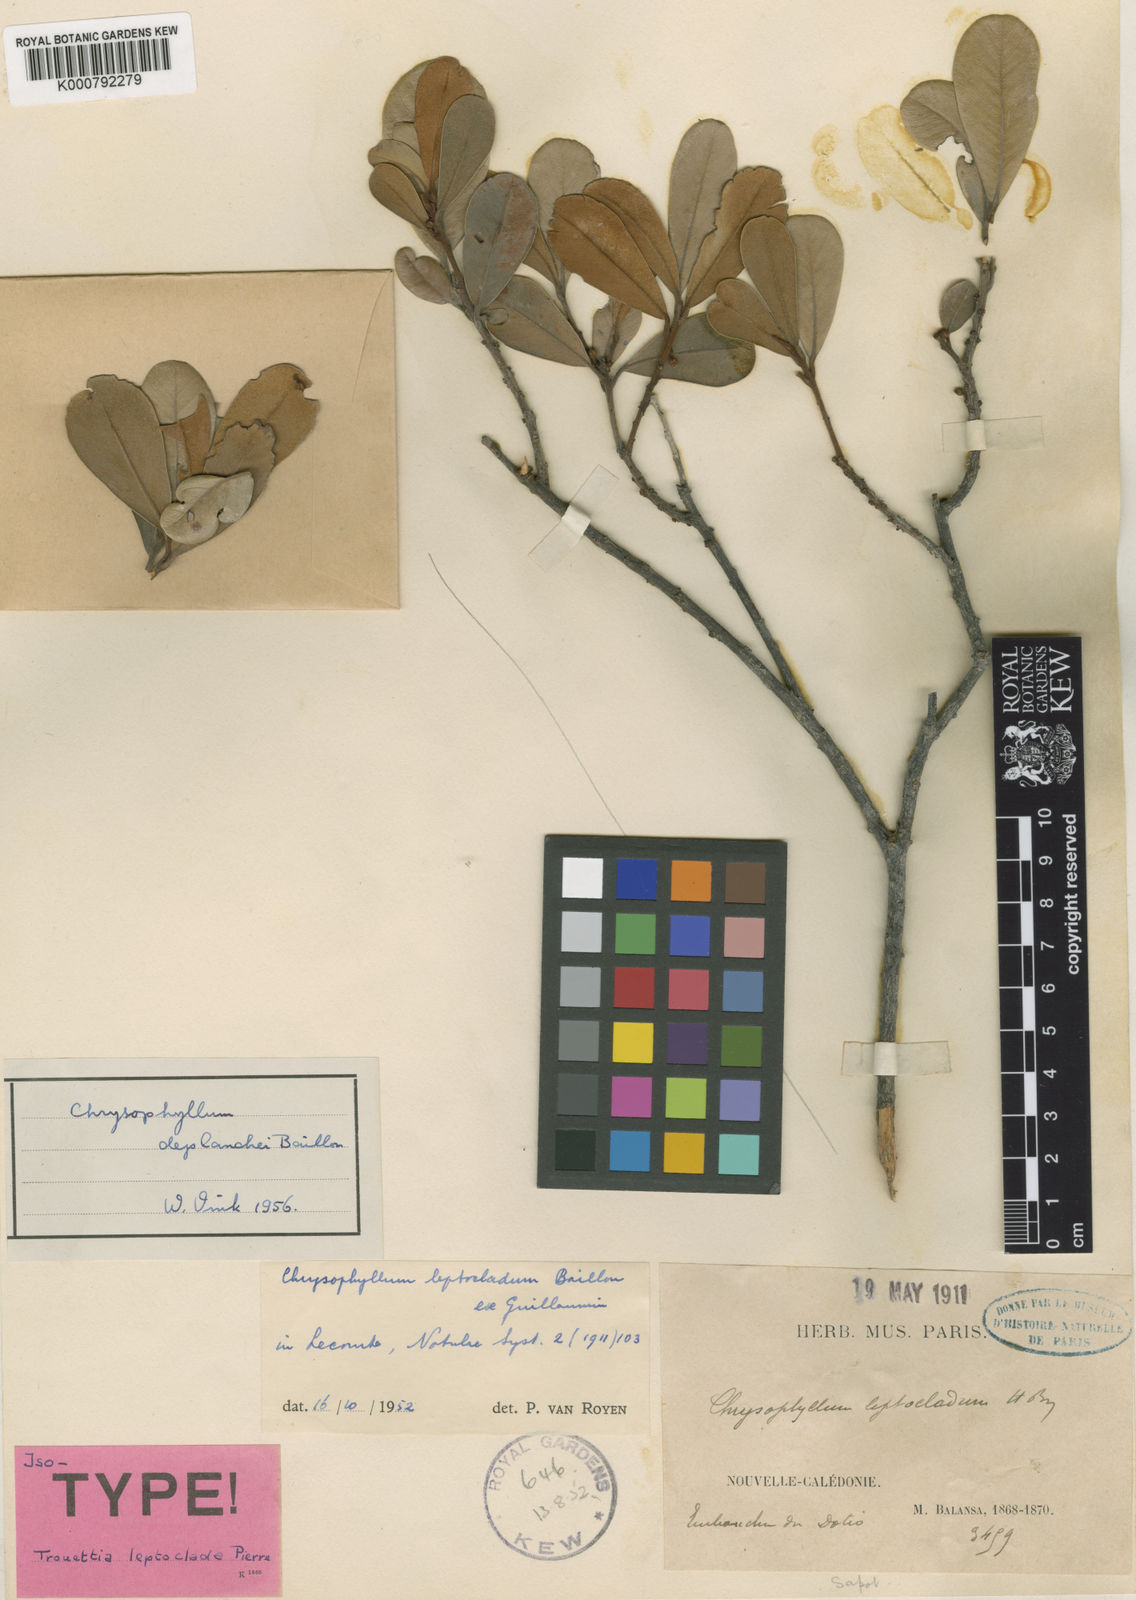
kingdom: Plantae
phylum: Tracheophyta
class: Magnoliopsida
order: Ericales
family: Sapotaceae
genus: Pycnandra
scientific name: Pycnandra deplanchei
